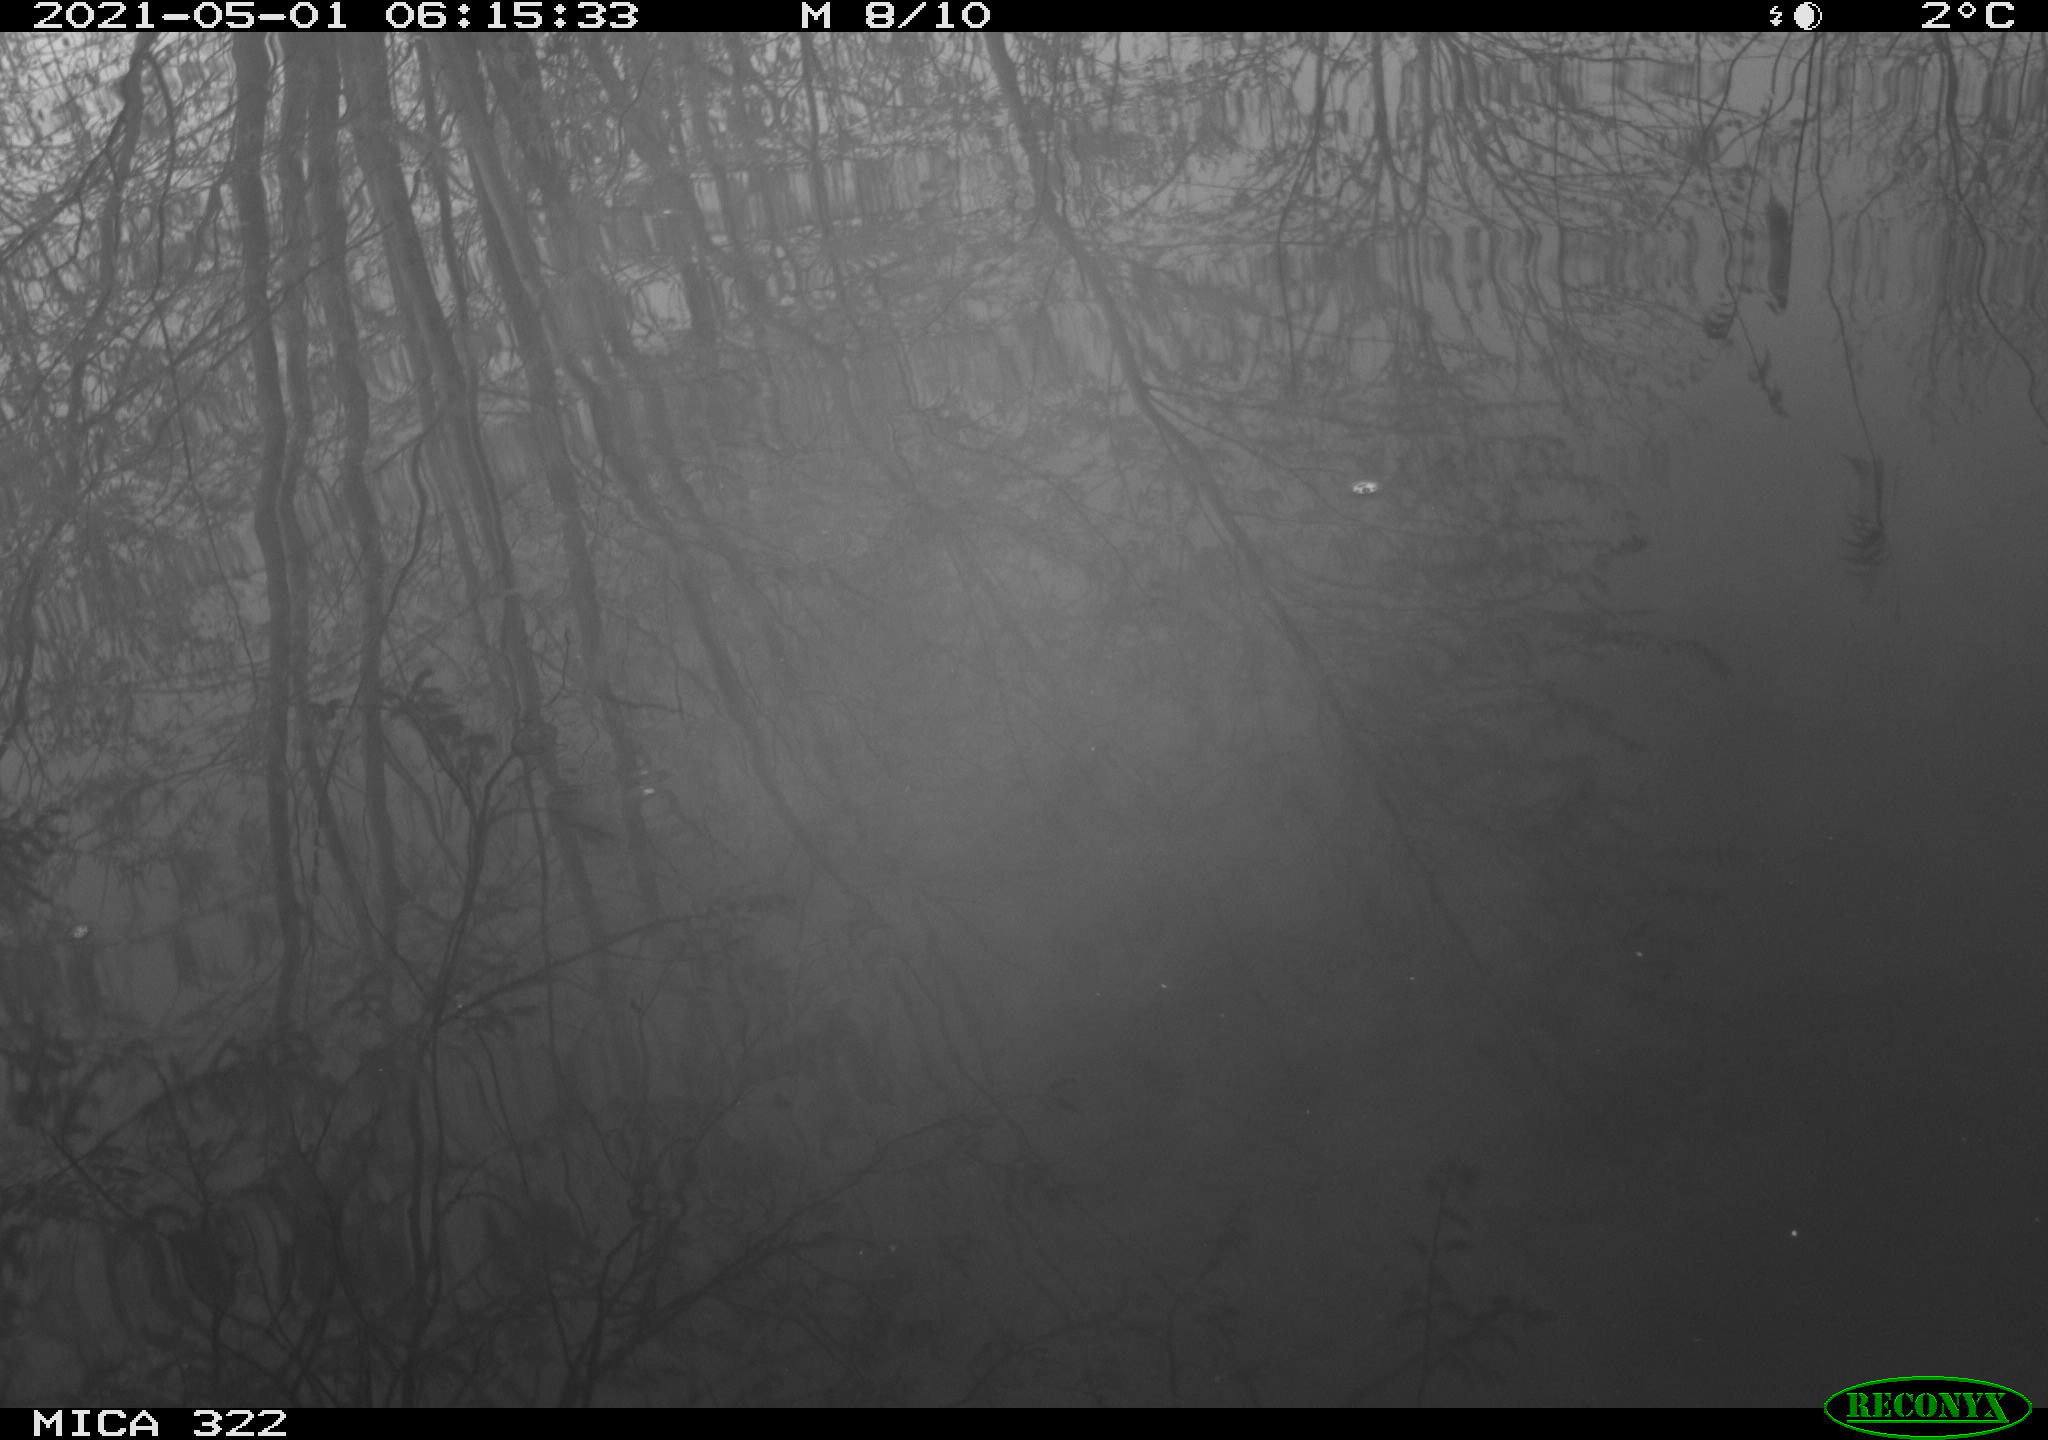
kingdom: Animalia
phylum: Chordata
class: Aves
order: Gruiformes
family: Rallidae
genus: Fulica
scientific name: Fulica atra
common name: Eurasian coot
